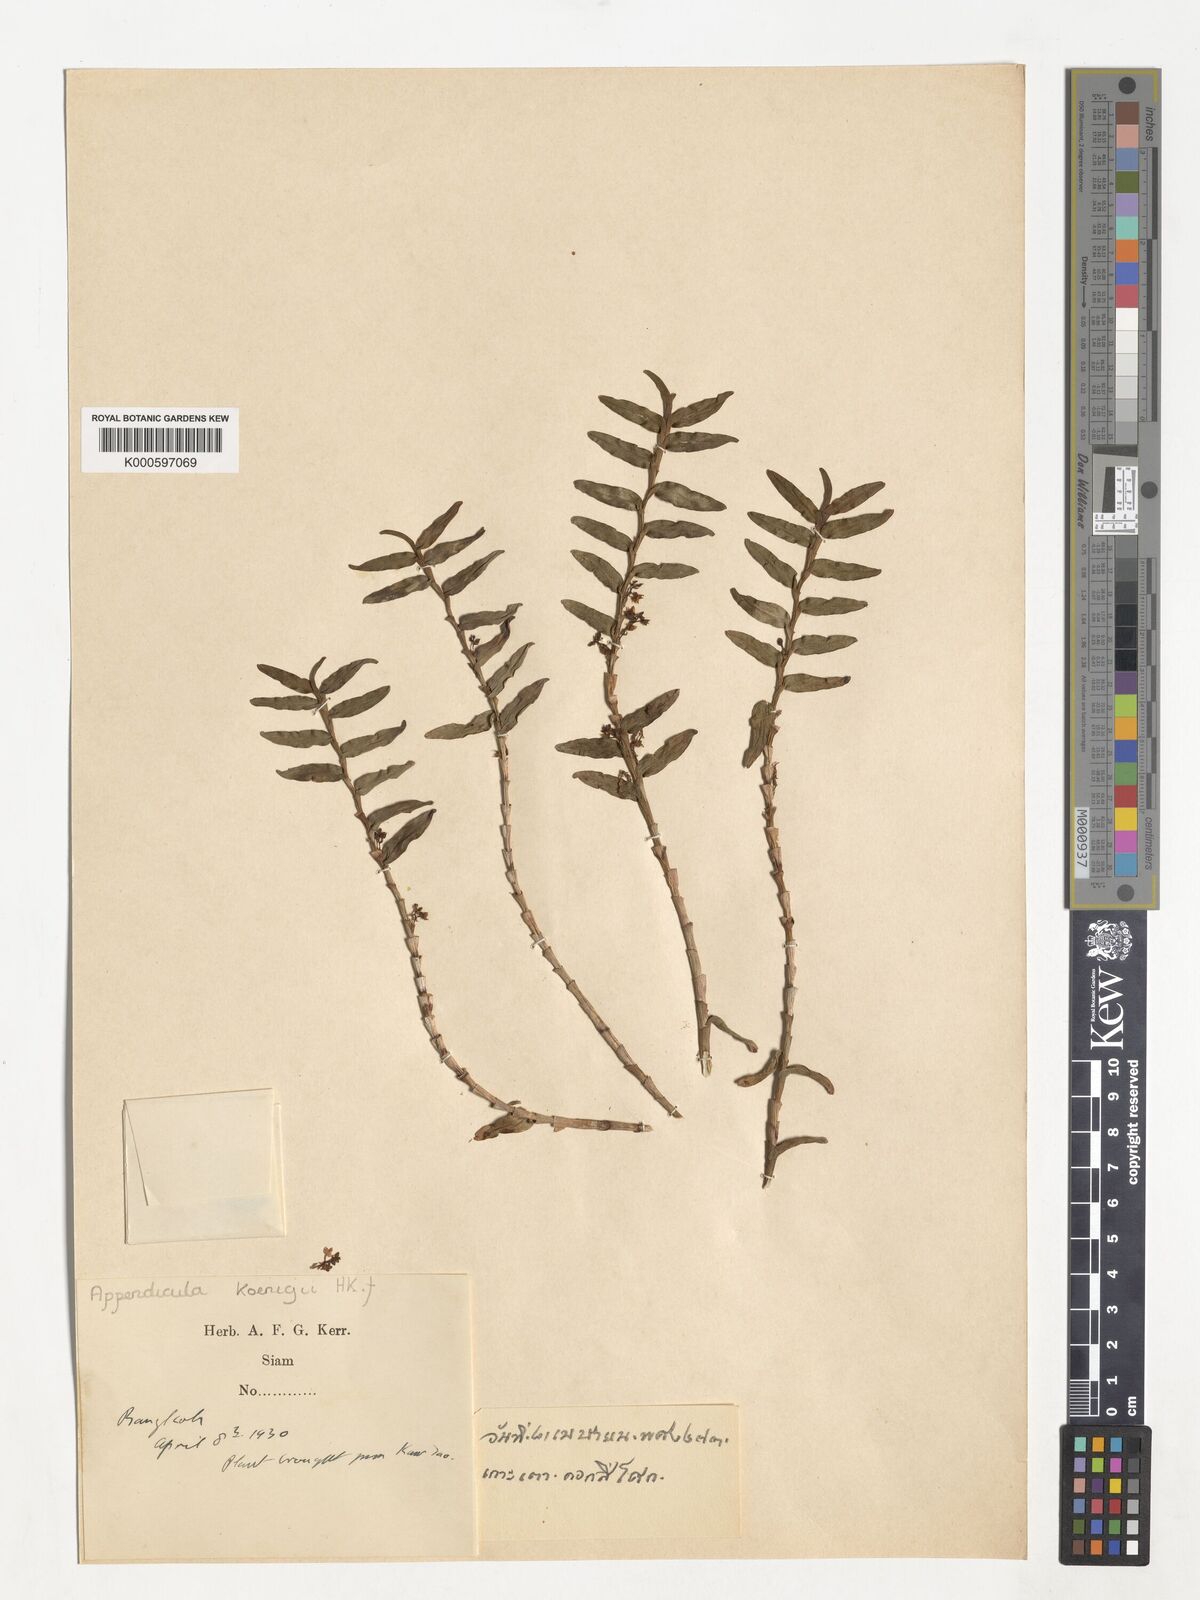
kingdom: Plantae
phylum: Tracheophyta
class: Liliopsida
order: Asparagales
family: Orchidaceae
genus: Appendicula
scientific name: Appendicula
